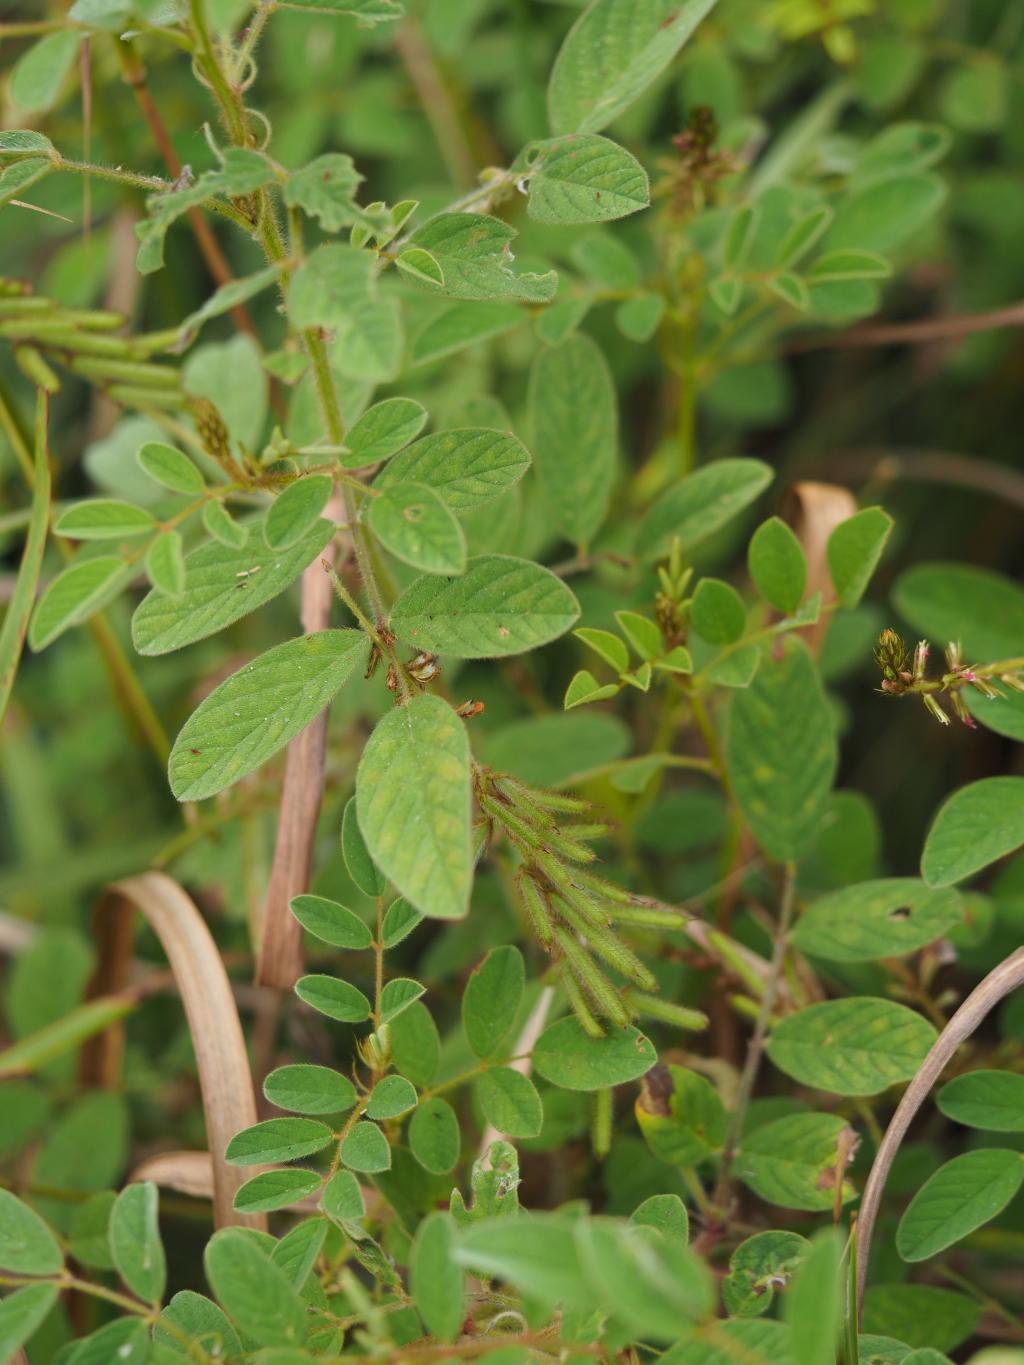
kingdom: Plantae
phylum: Tracheophyta
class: Magnoliopsida
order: Fabales
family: Fabaceae
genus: Indigofera
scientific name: Indigofera hirsuta
